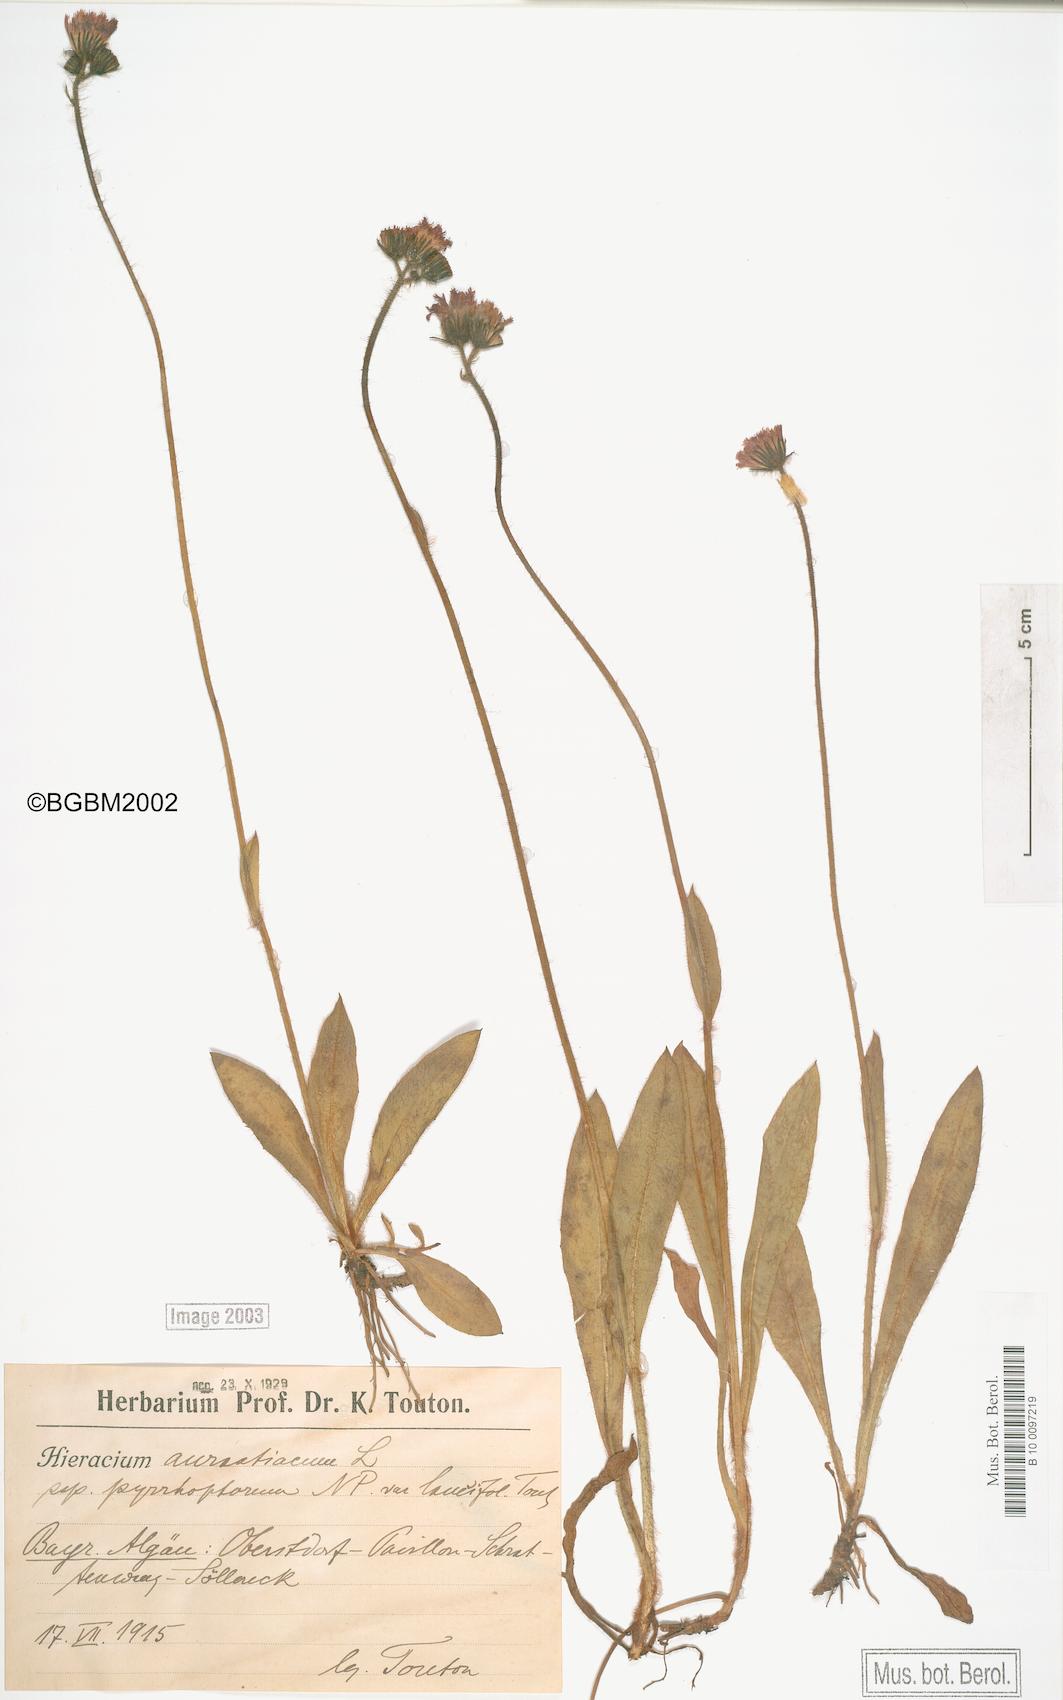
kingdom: Plantae
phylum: Tracheophyta
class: Magnoliopsida
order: Asterales
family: Asteraceae
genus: Pilosella
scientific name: Pilosella aurantiaca
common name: Fox-and-cubs
